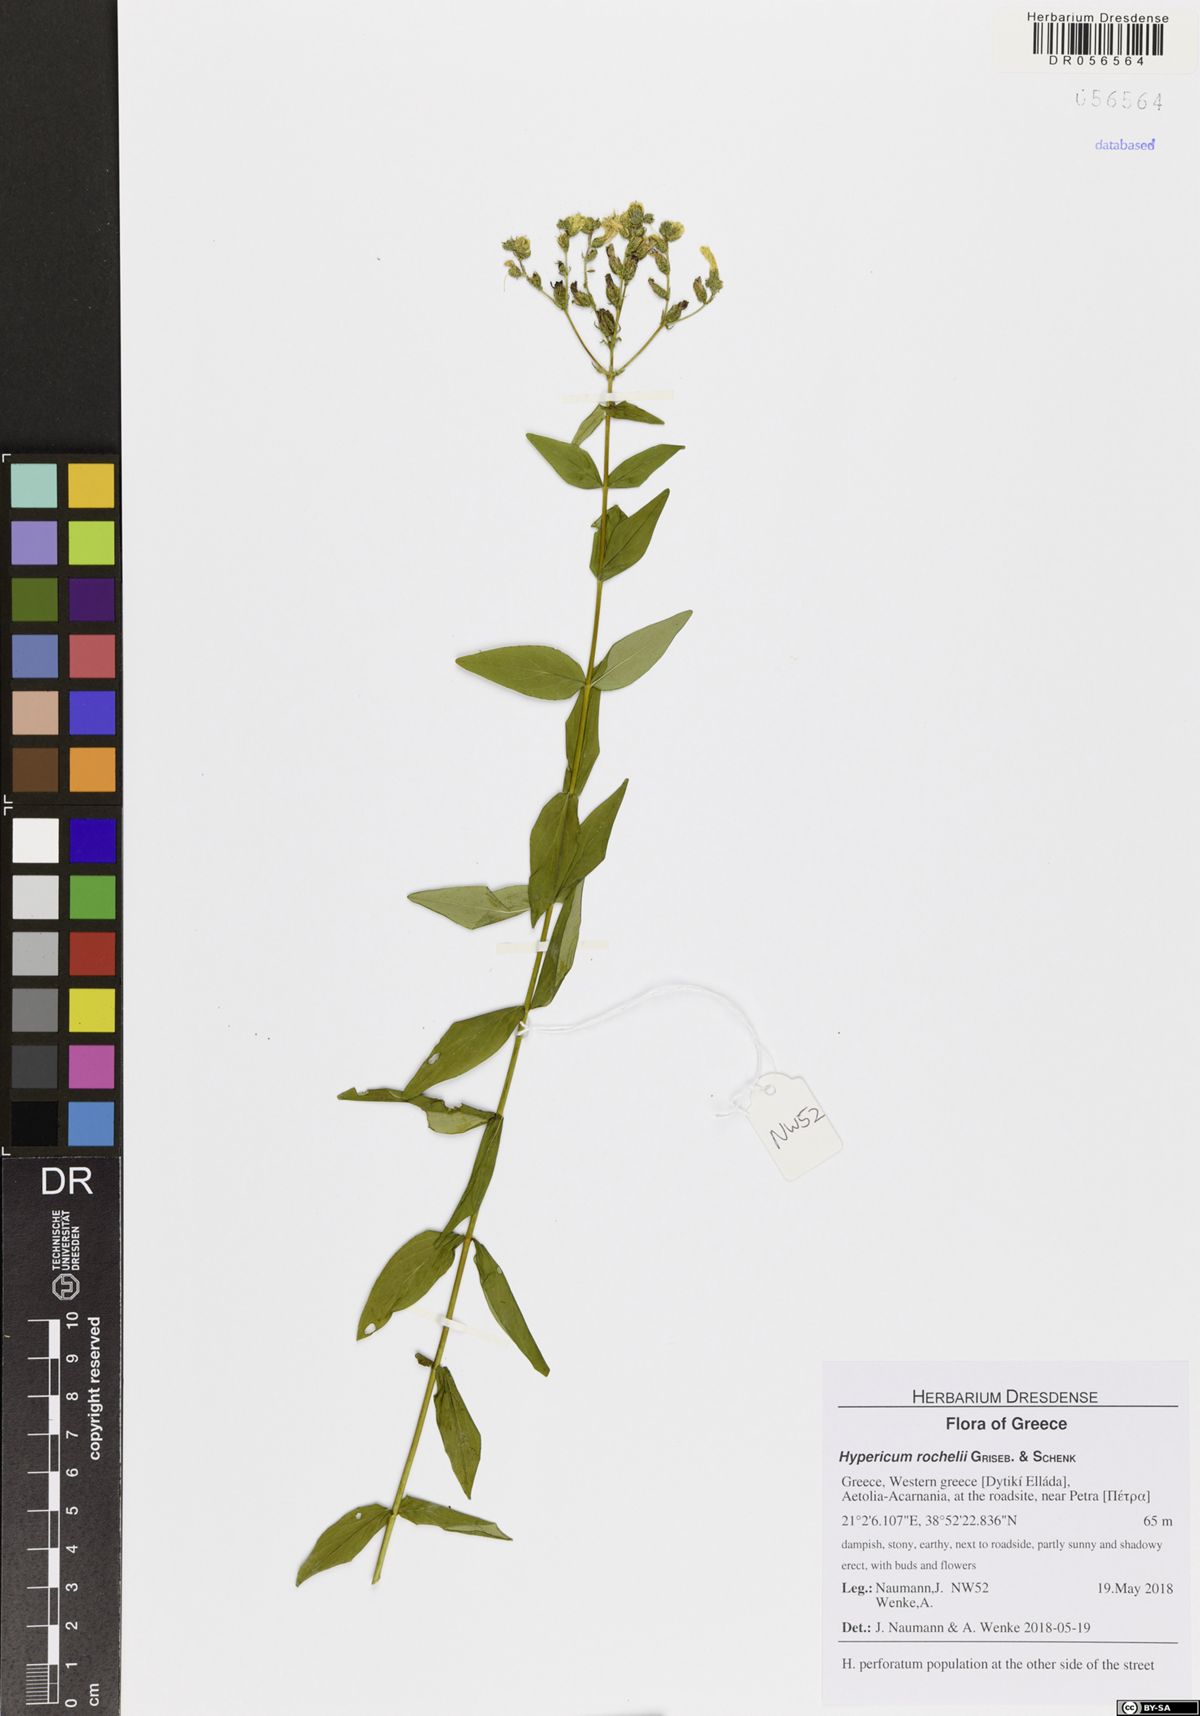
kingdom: Plantae
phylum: Tracheophyta
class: Magnoliopsida
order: Malpighiales
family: Hypericaceae
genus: Hypericum
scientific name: Hypericum rochelii
